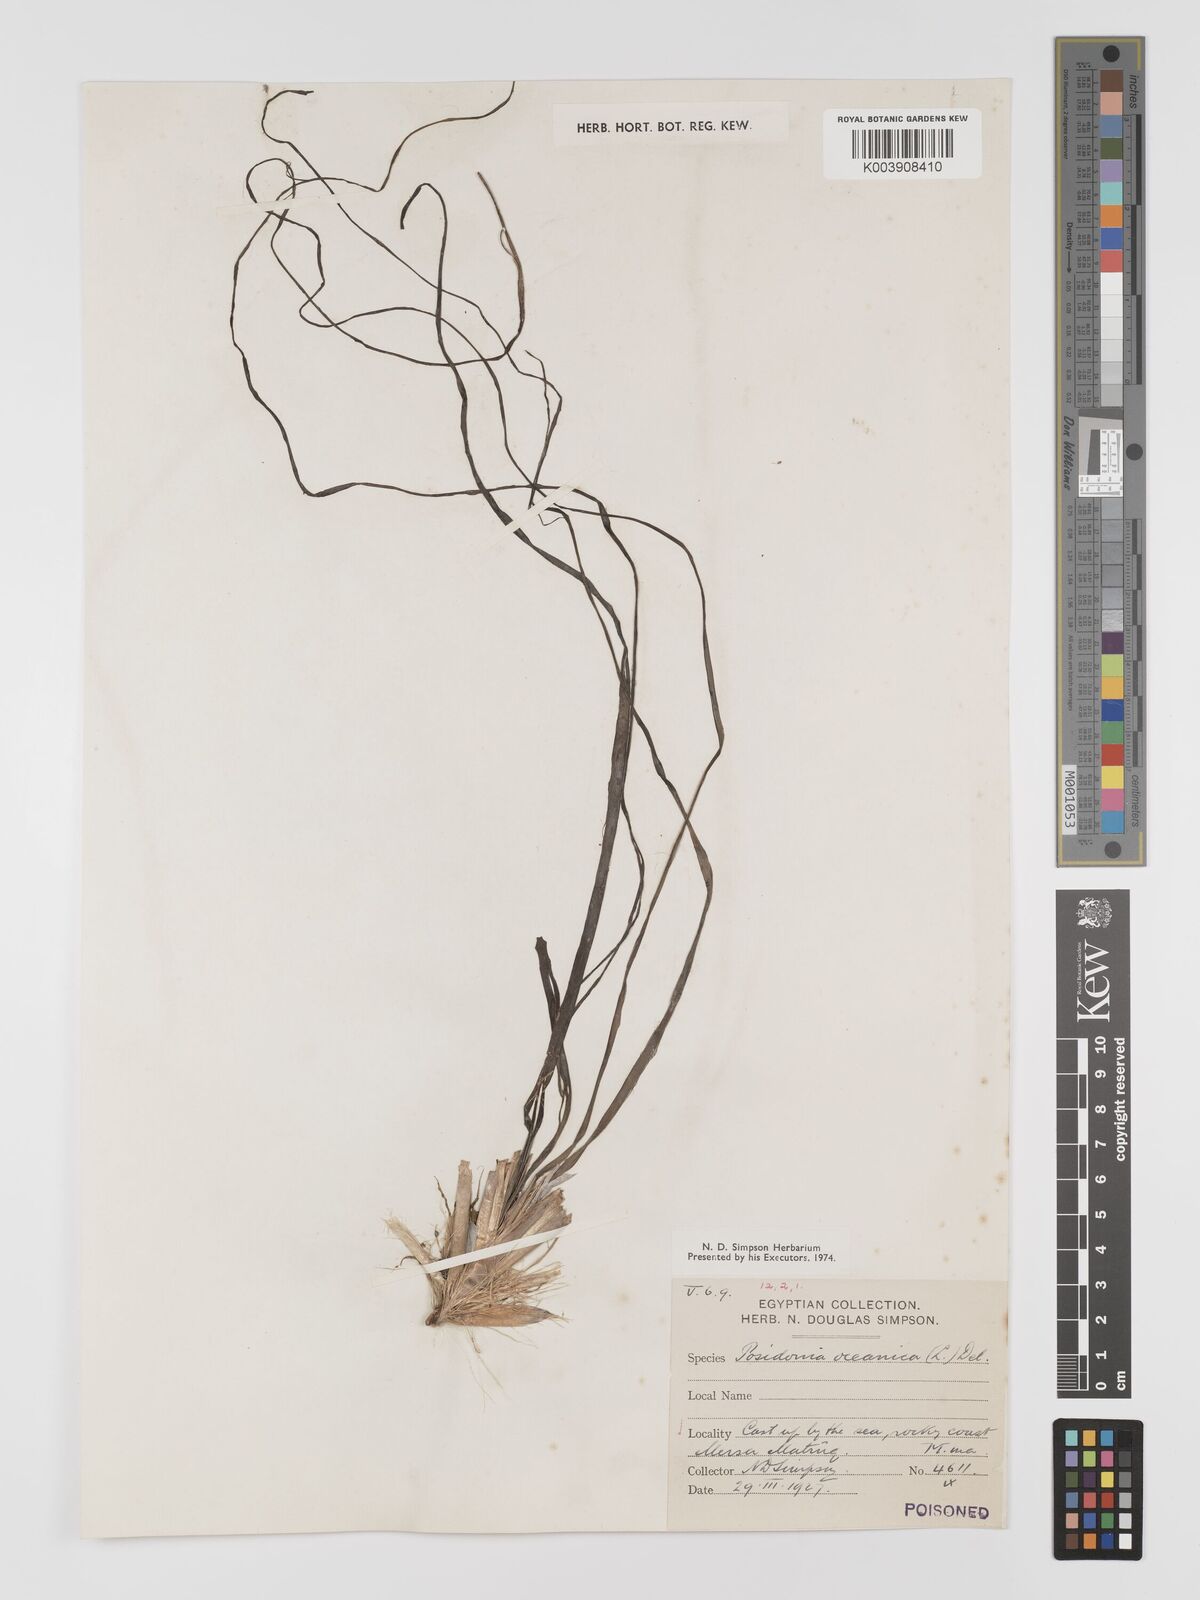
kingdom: Plantae
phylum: Tracheophyta
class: Liliopsida
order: Alismatales
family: Posidoniaceae
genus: Posidonia
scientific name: Posidonia oceanica
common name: Mediterranean tapeweed
